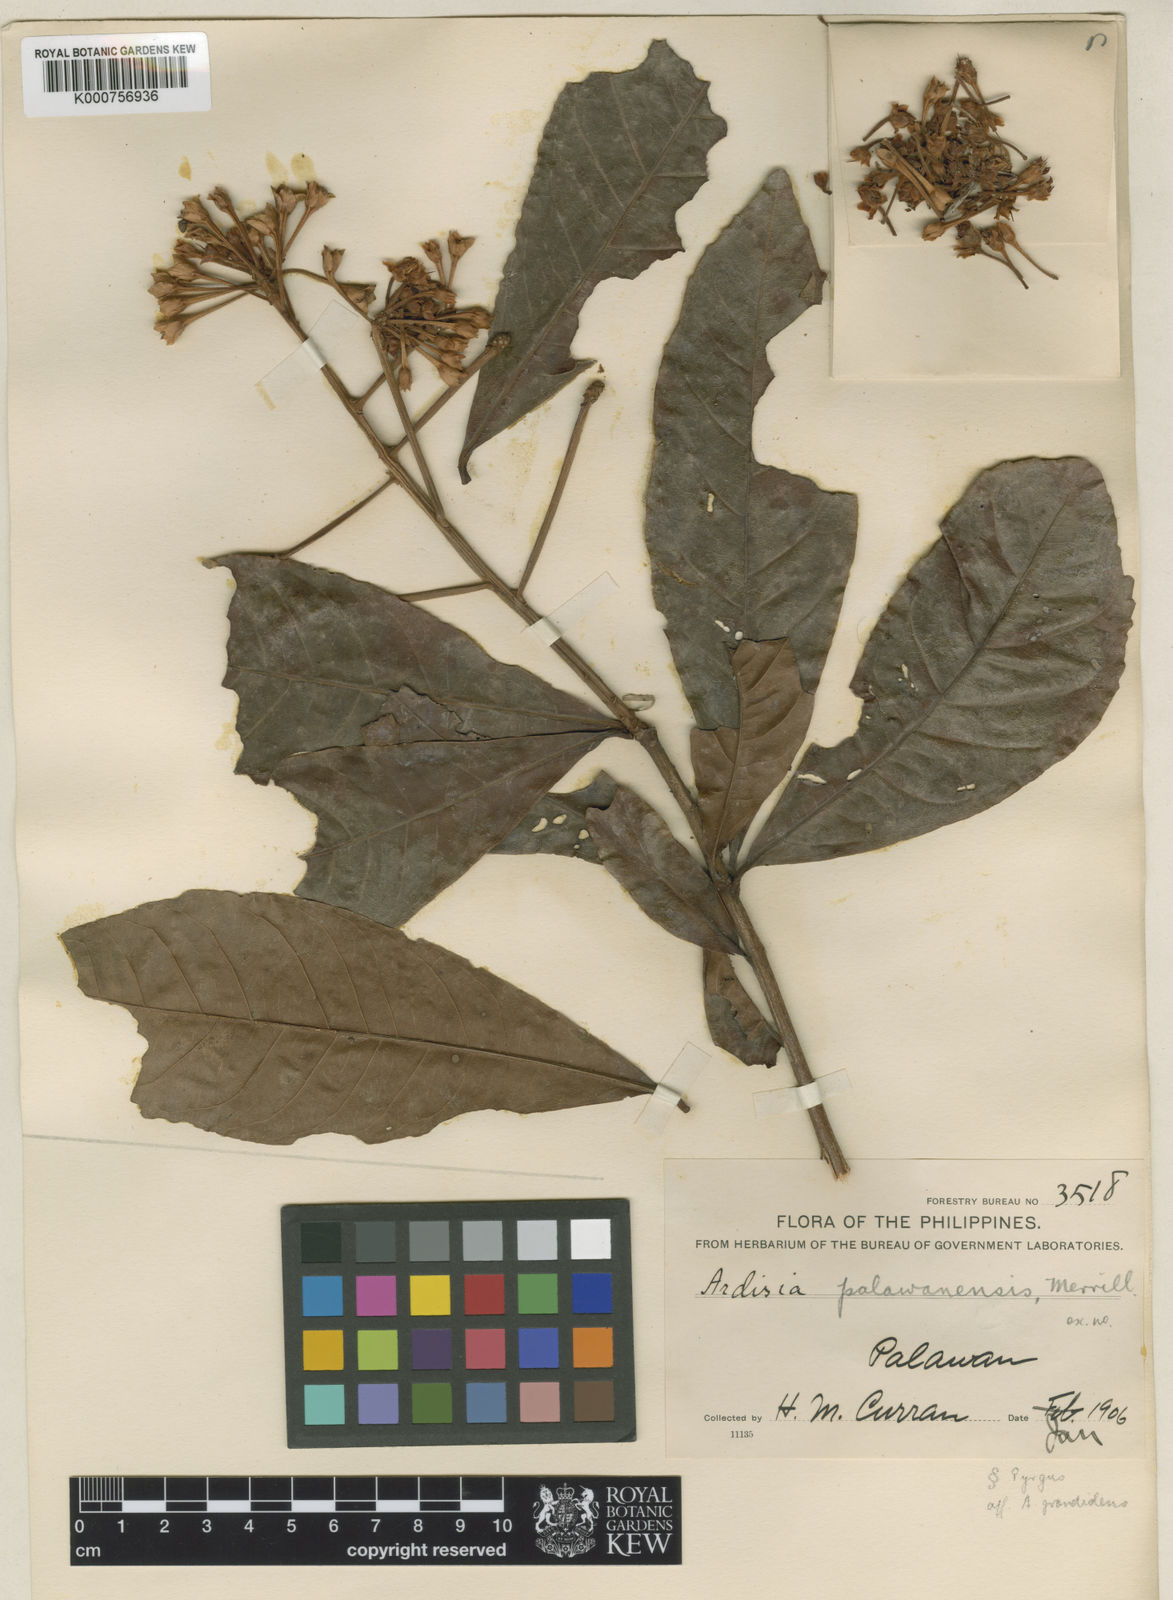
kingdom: Plantae
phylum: Tracheophyta
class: Magnoliopsida
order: Ericales
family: Primulaceae
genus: Ardisia
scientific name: Ardisia
